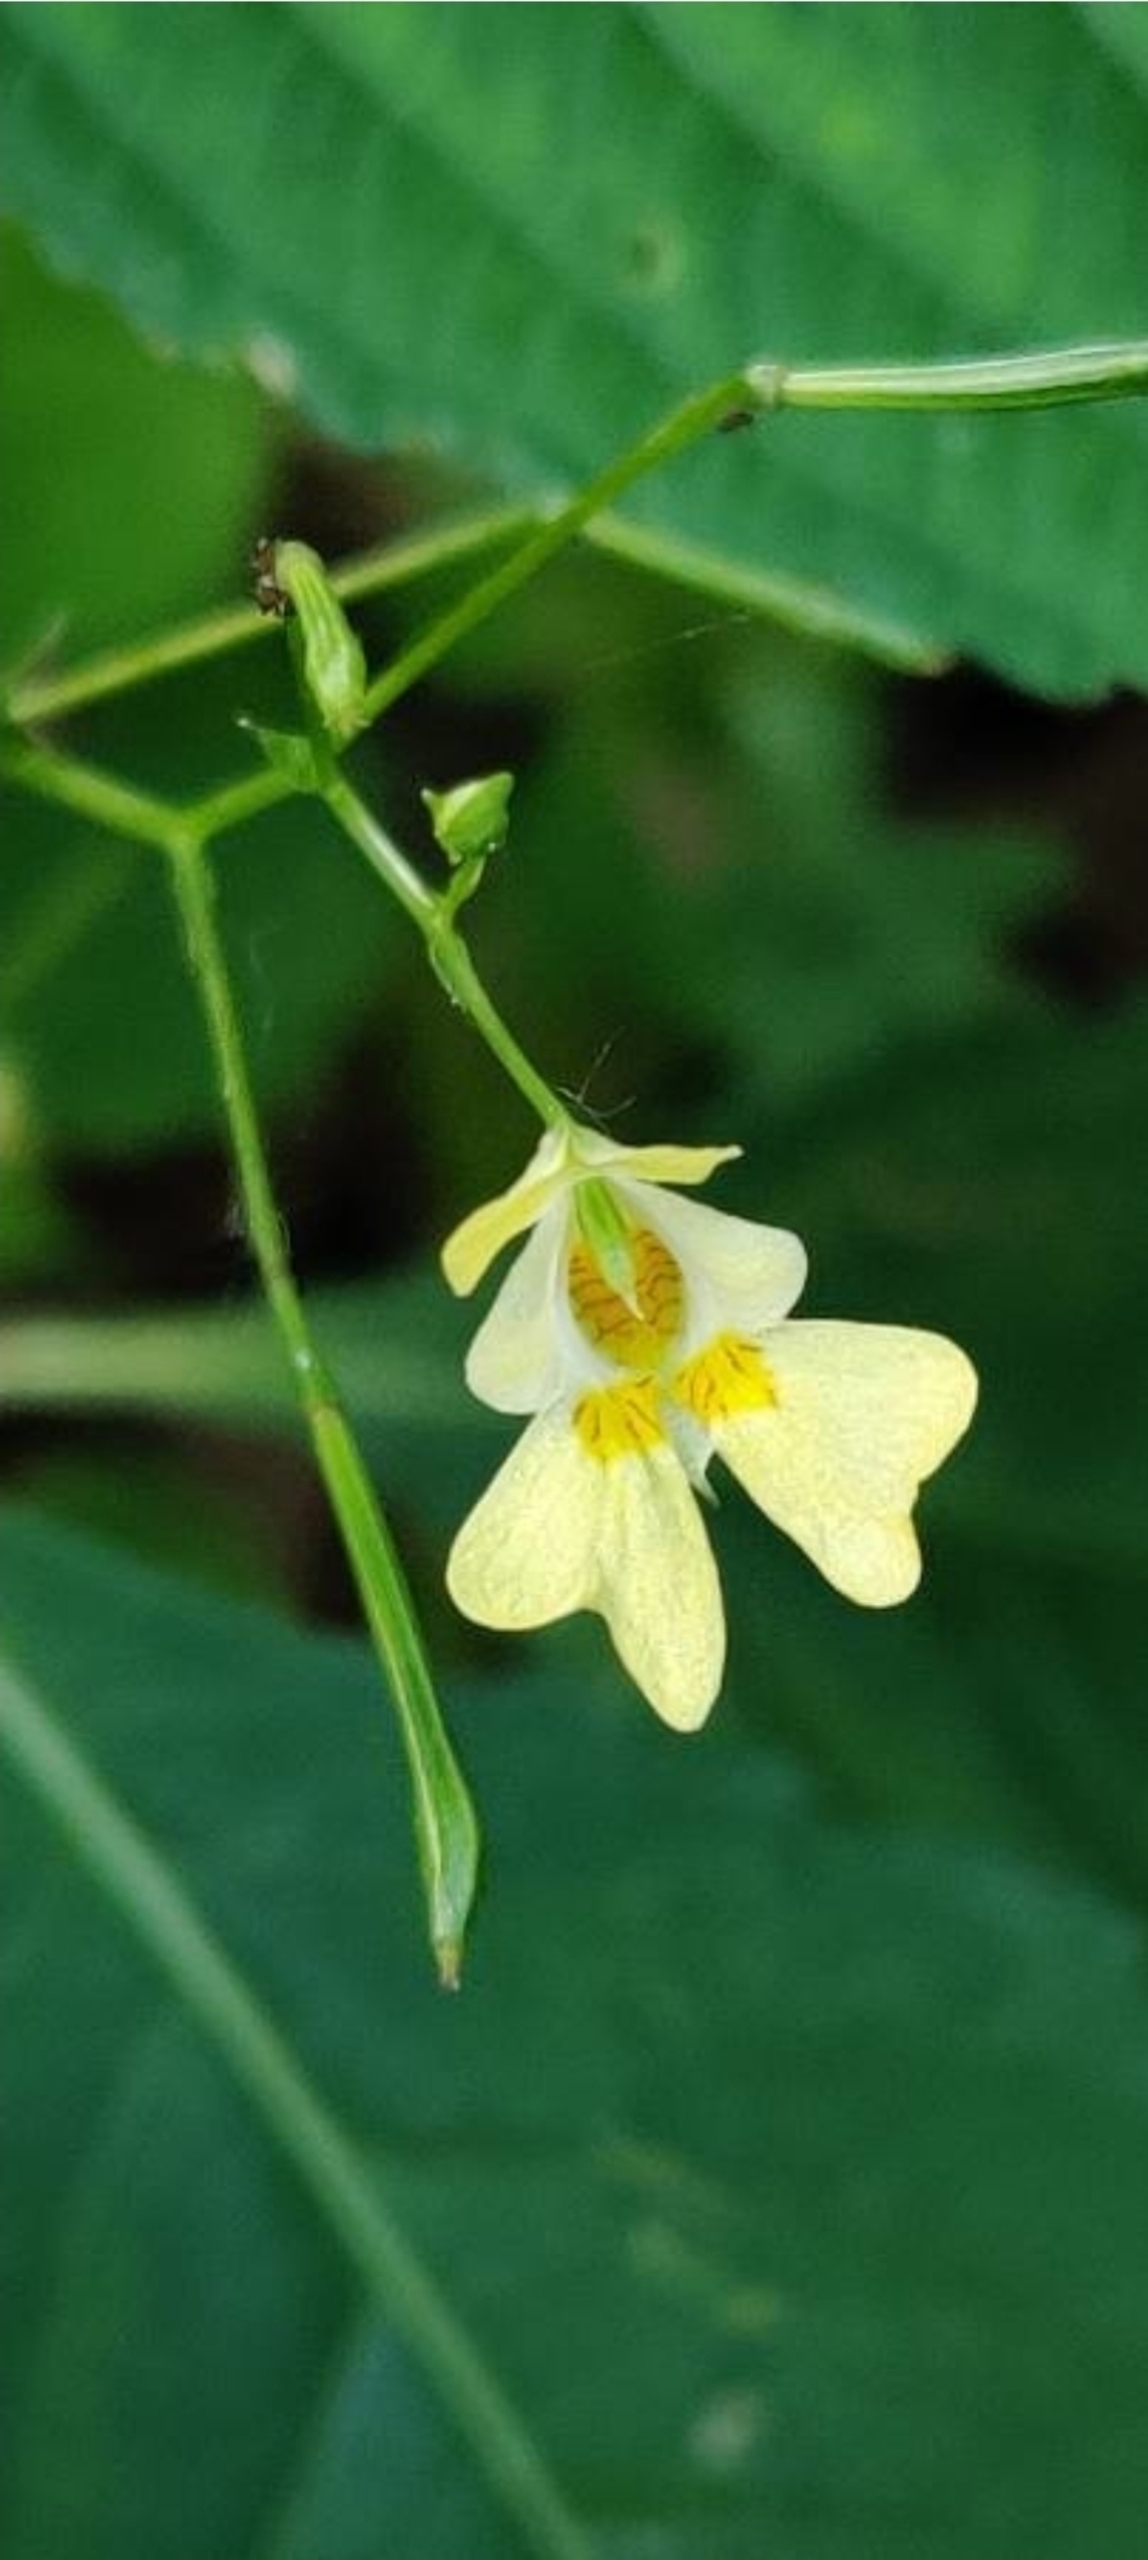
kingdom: Plantae
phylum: Tracheophyta
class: Magnoliopsida
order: Ericales
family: Balsaminaceae
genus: Impatiens
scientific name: Impatiens parviflora
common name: Småblomstret balsamin
